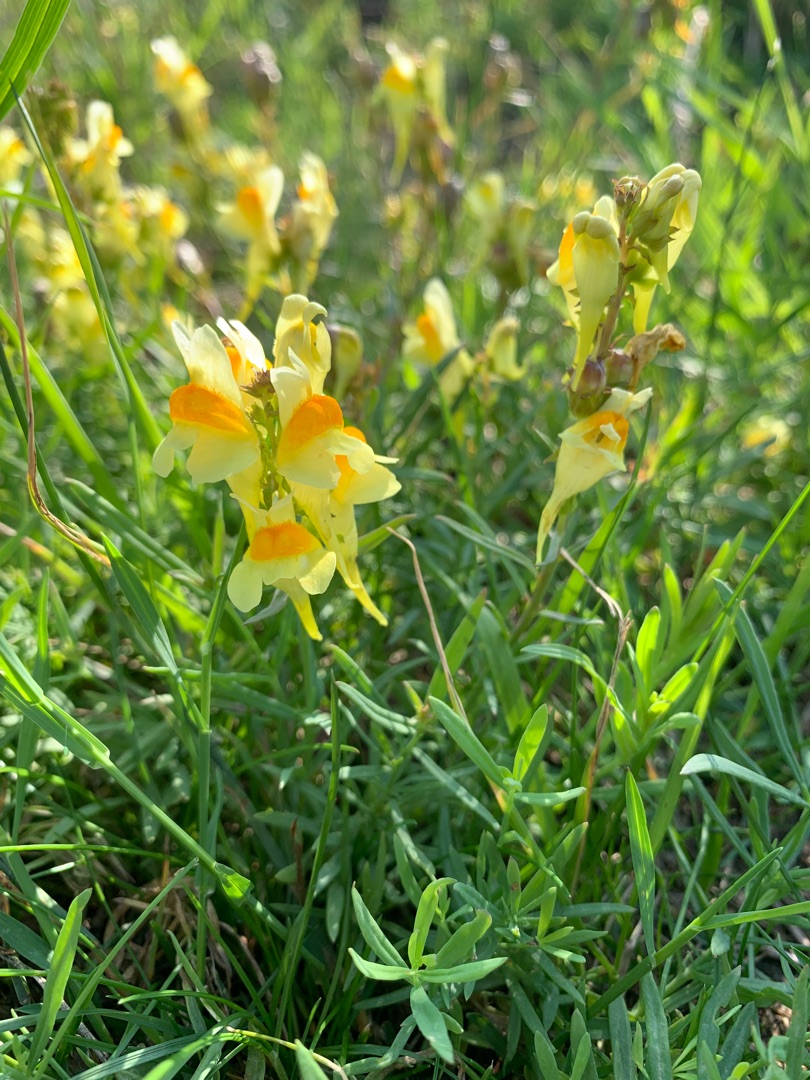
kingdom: Plantae
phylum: Tracheophyta
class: Magnoliopsida
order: Lamiales
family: Plantaginaceae
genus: Linaria
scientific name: Linaria vulgaris
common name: Almindelig torskemund
